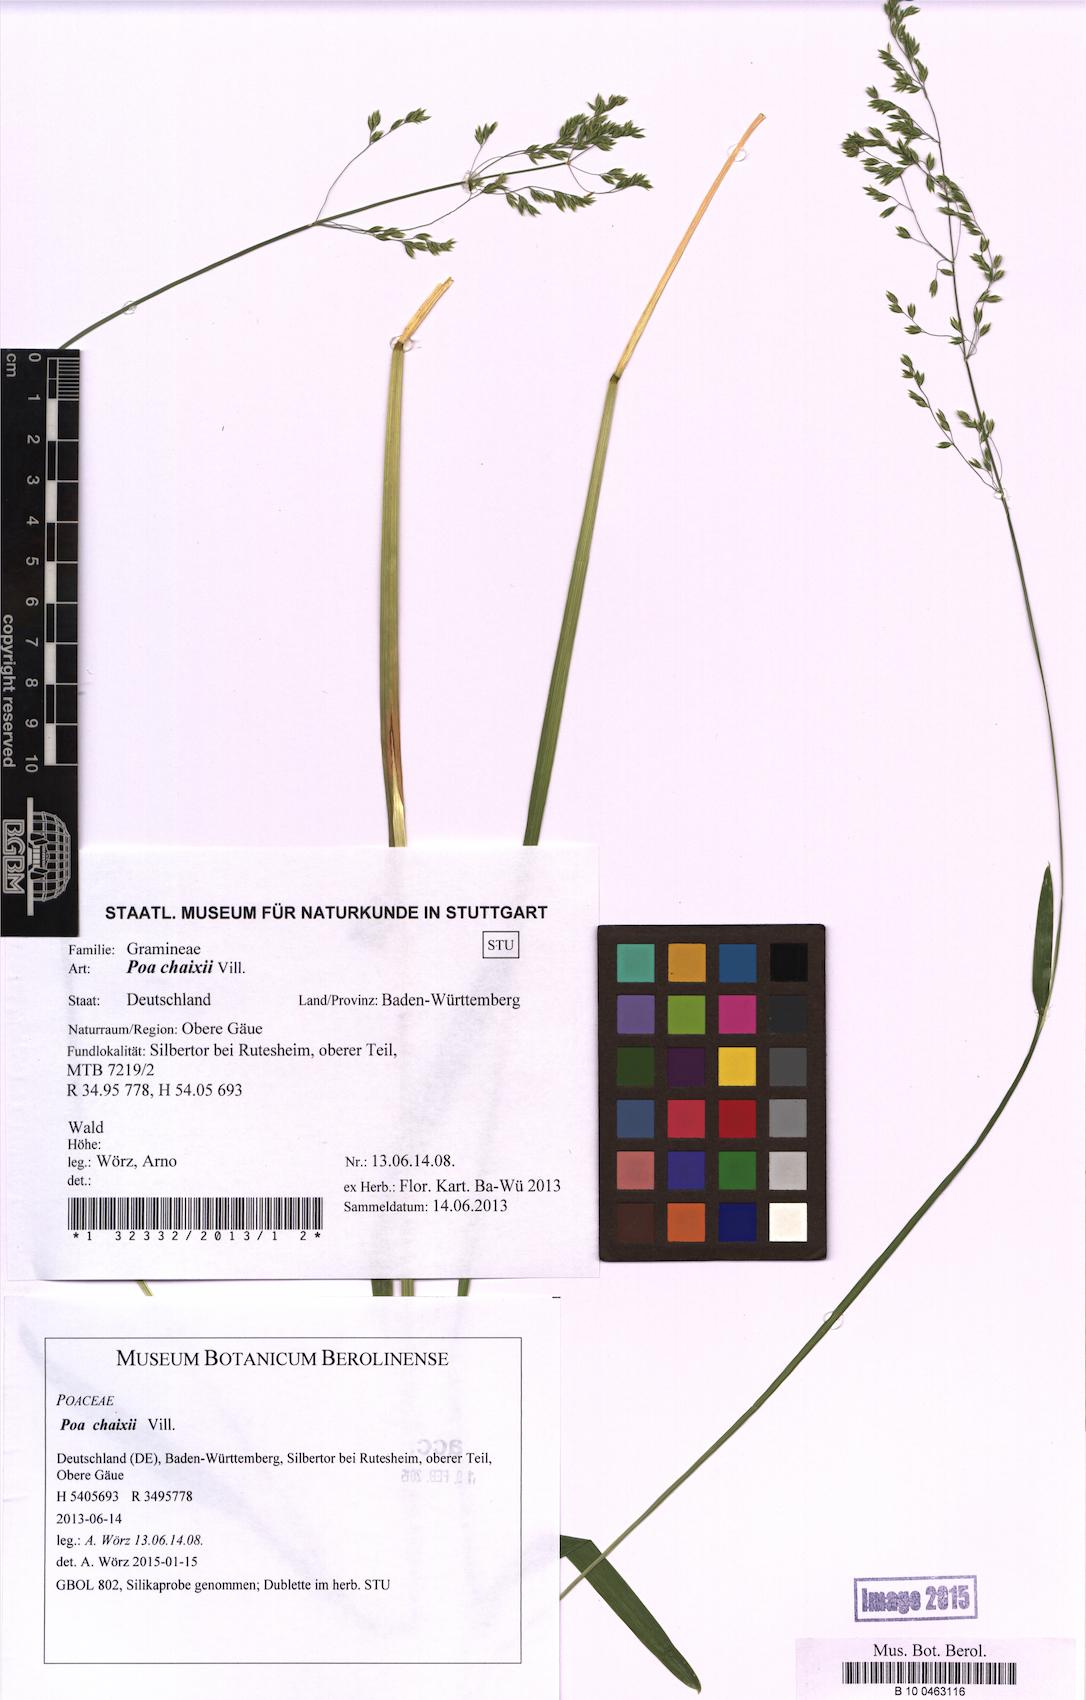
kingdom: Plantae
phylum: Tracheophyta
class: Liliopsida
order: Poales
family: Poaceae
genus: Poa
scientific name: Poa chaixii
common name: Broad-leaved meadow-grass
